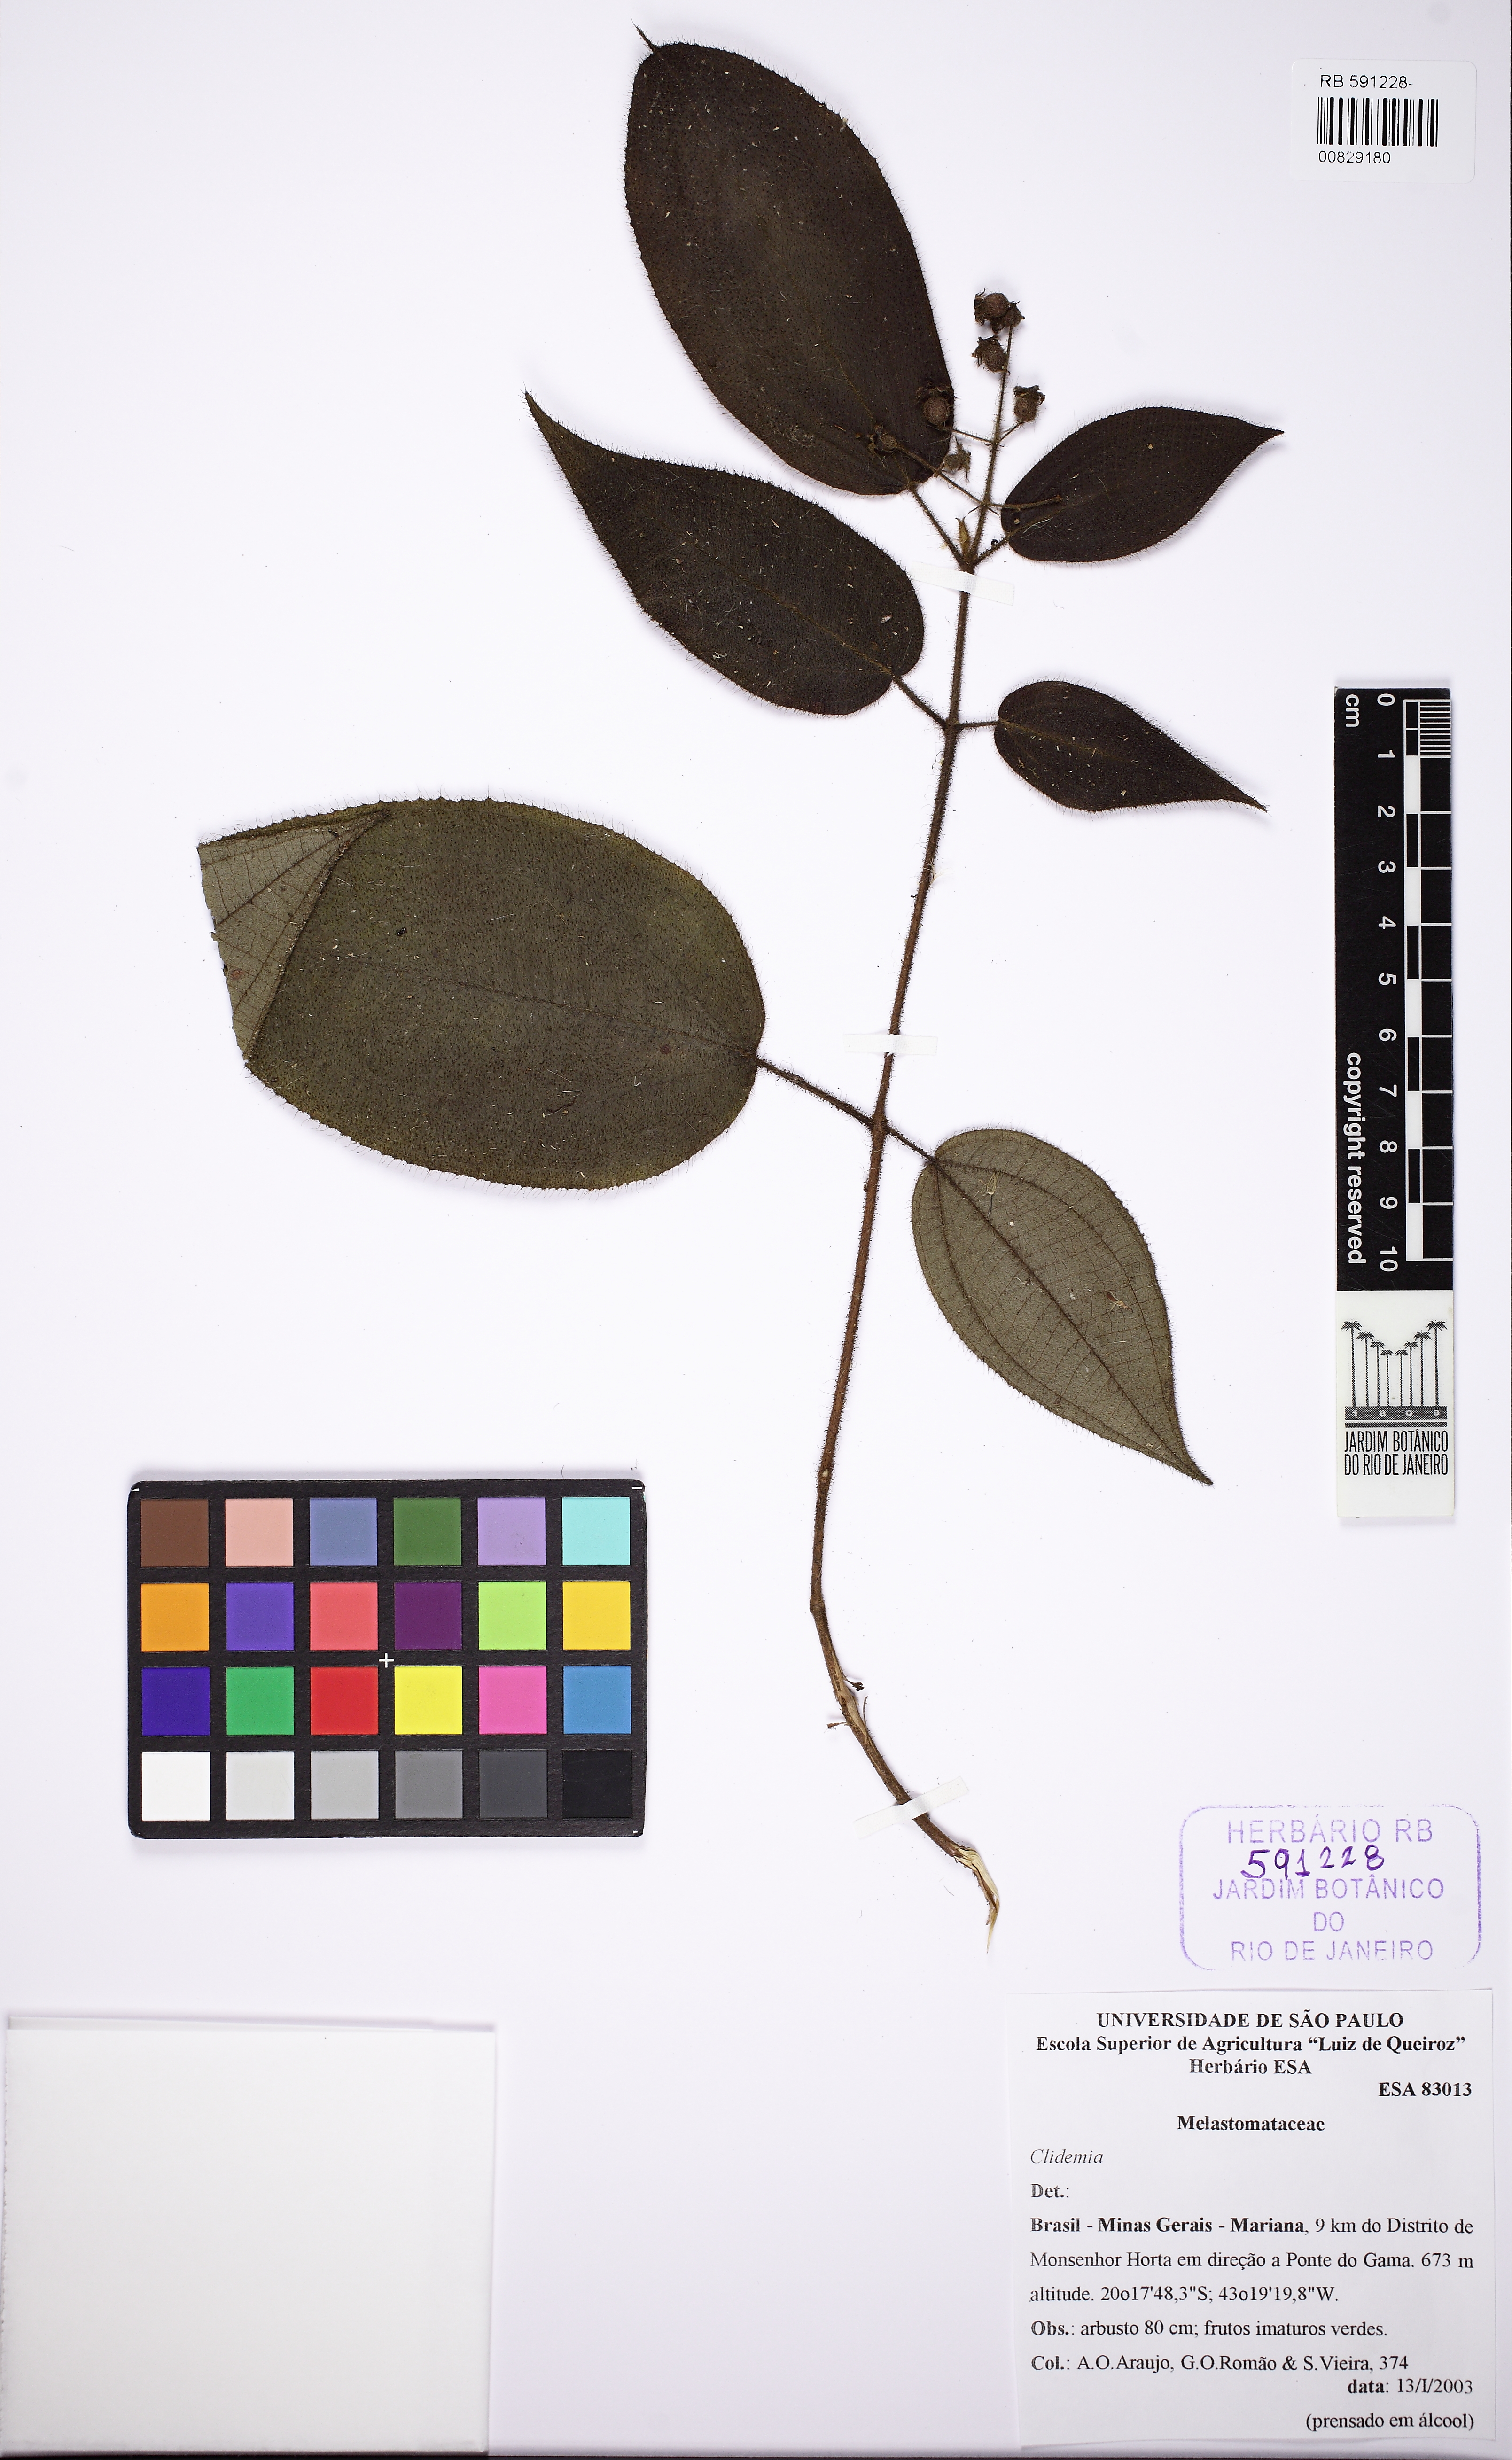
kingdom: Plantae
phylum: Tracheophyta
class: Magnoliopsida
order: Myrtales
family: Melastomataceae
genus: Miconia
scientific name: Miconia neourceolata
